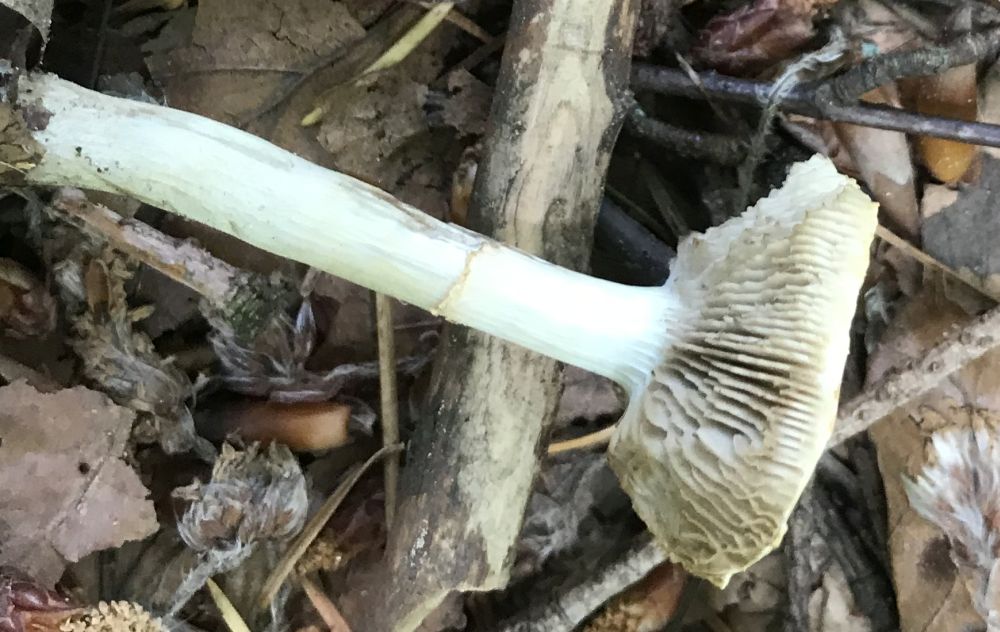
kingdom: Fungi
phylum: Basidiomycota
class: Agaricomycetes
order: Agaricales
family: Strophariaceae
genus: Agrocybe
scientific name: Agrocybe praecox
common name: tidlig agerhat
